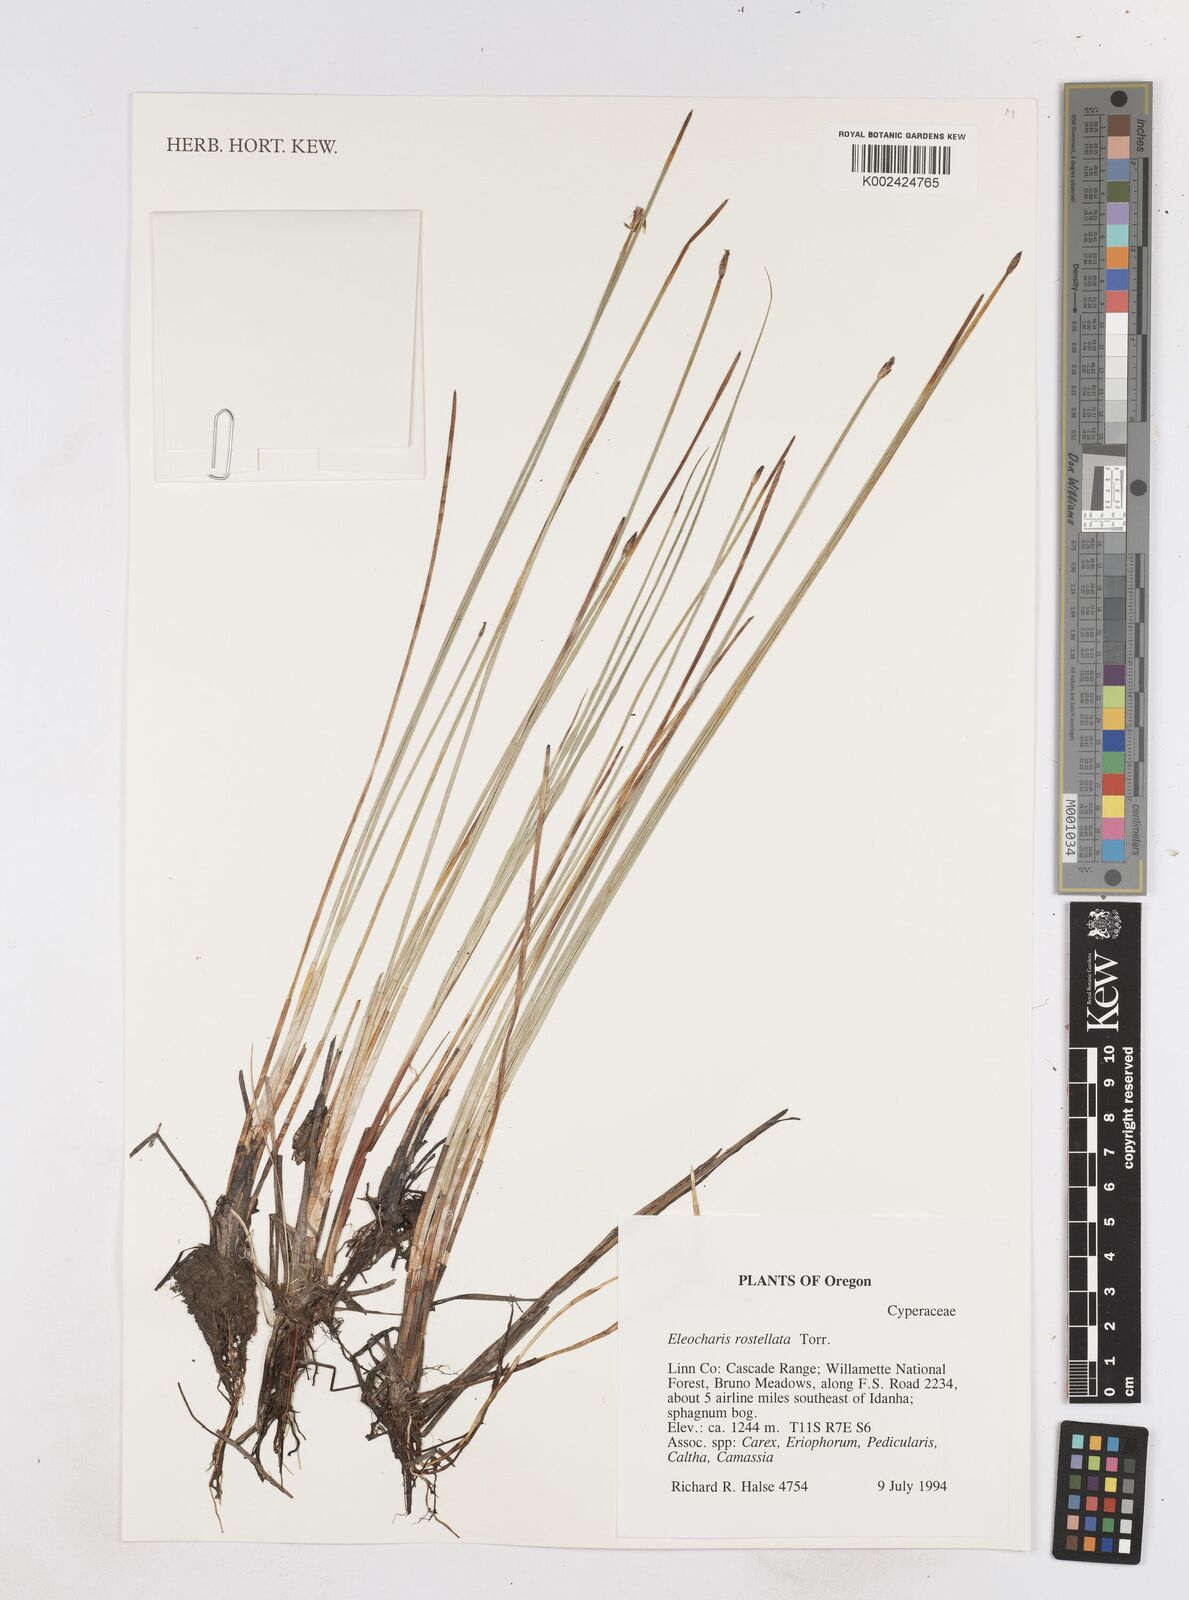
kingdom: Plantae
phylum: Tracheophyta
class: Liliopsida
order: Poales
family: Cyperaceae
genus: Eleocharis
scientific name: Eleocharis rostellata
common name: Walking sedge
